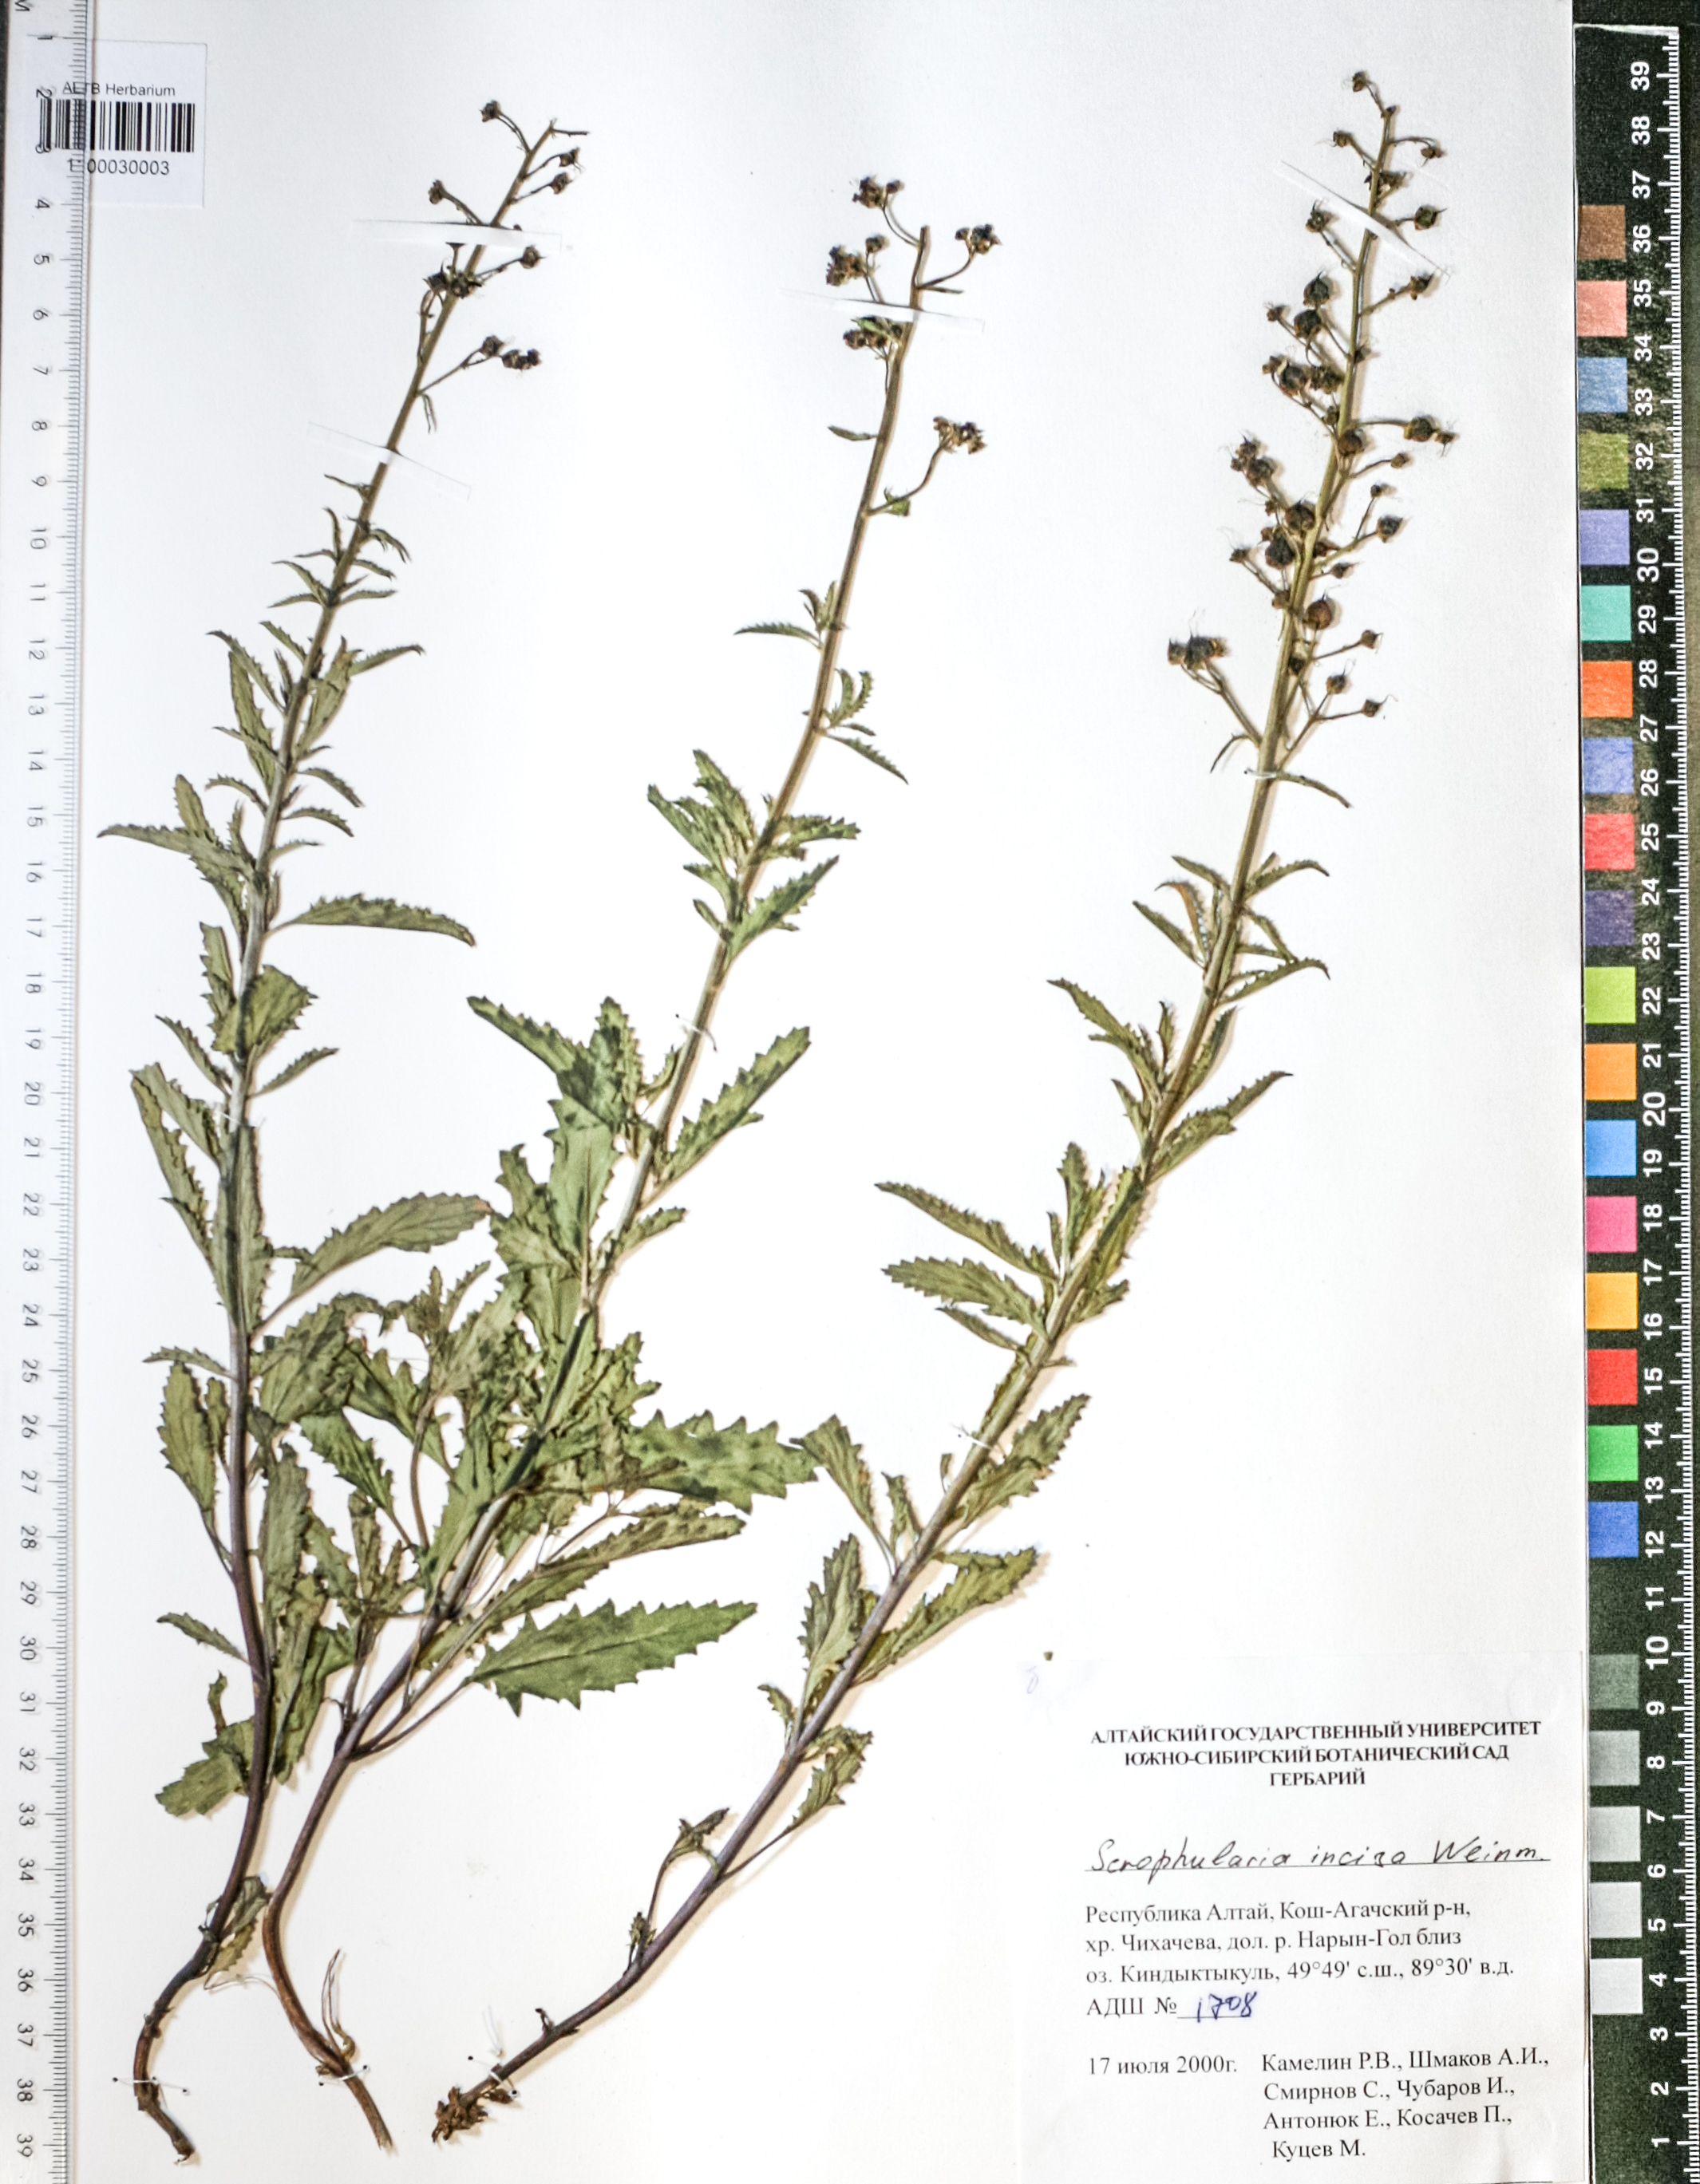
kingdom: Plantae
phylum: Tracheophyta
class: Magnoliopsida
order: Lamiales
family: Scrophulariaceae
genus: Scrophularia
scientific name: Scrophularia incisa
